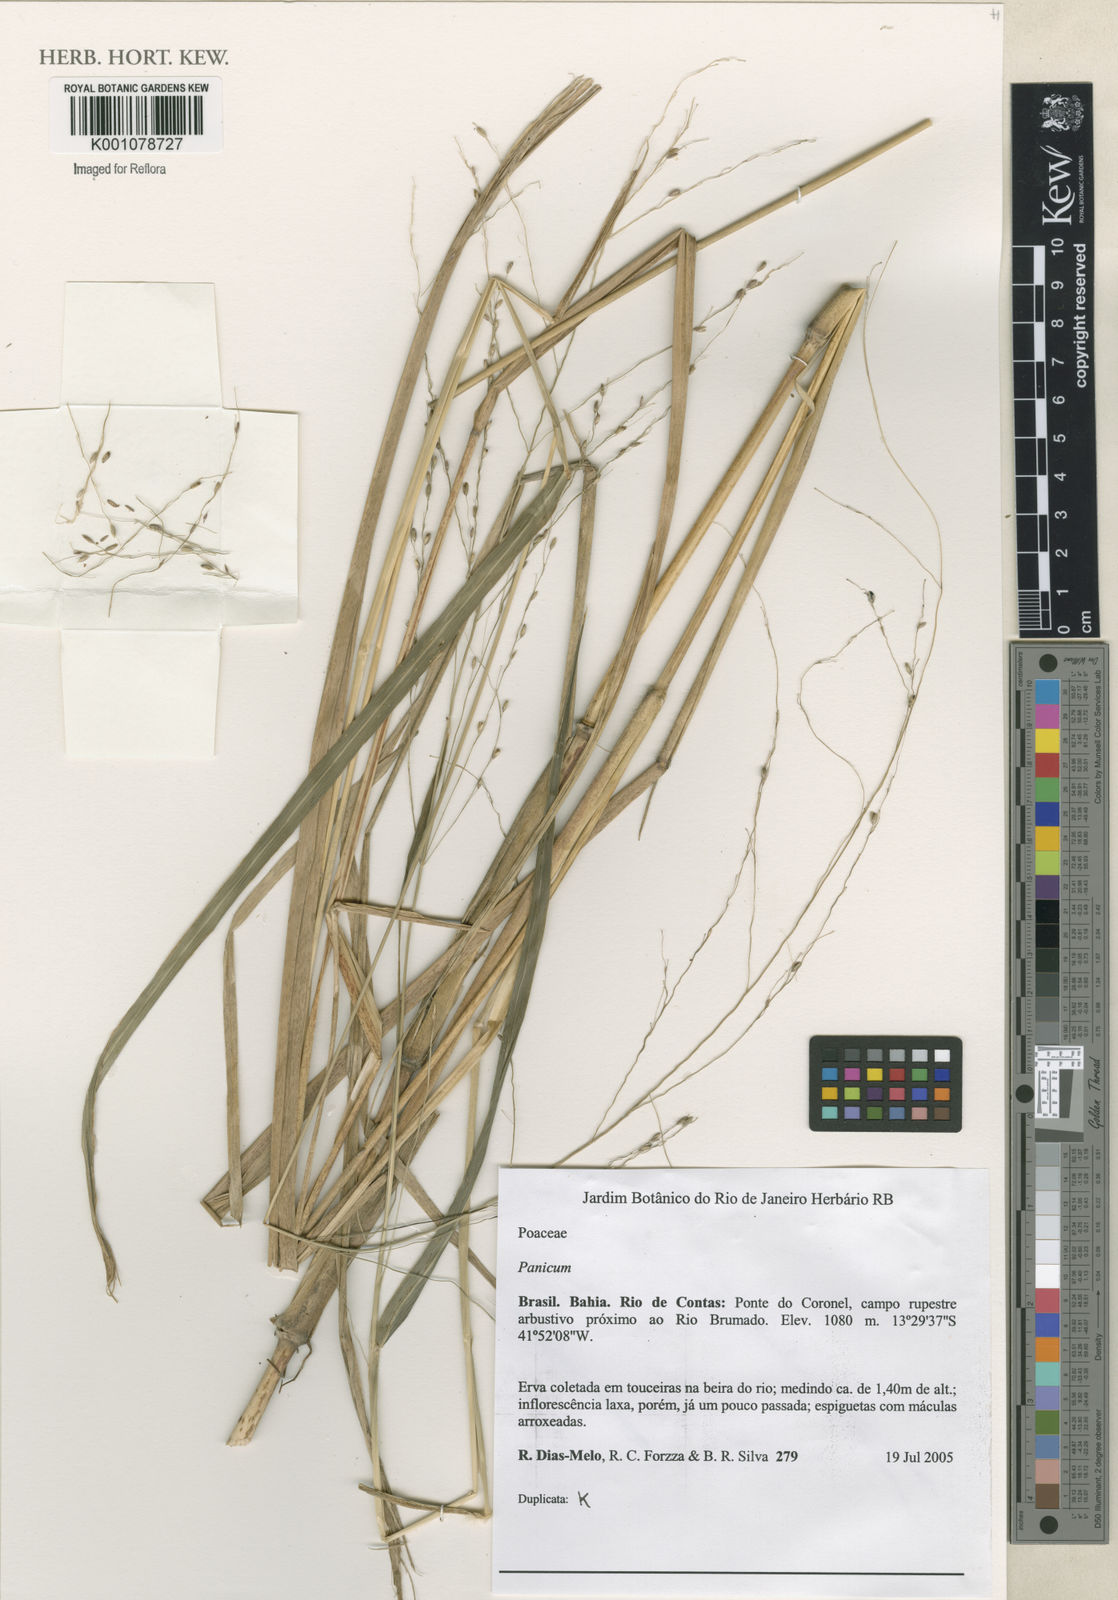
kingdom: Plantae
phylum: Tracheophyta
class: Liliopsida
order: Poales
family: Poaceae
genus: Panicum
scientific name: Panicum
